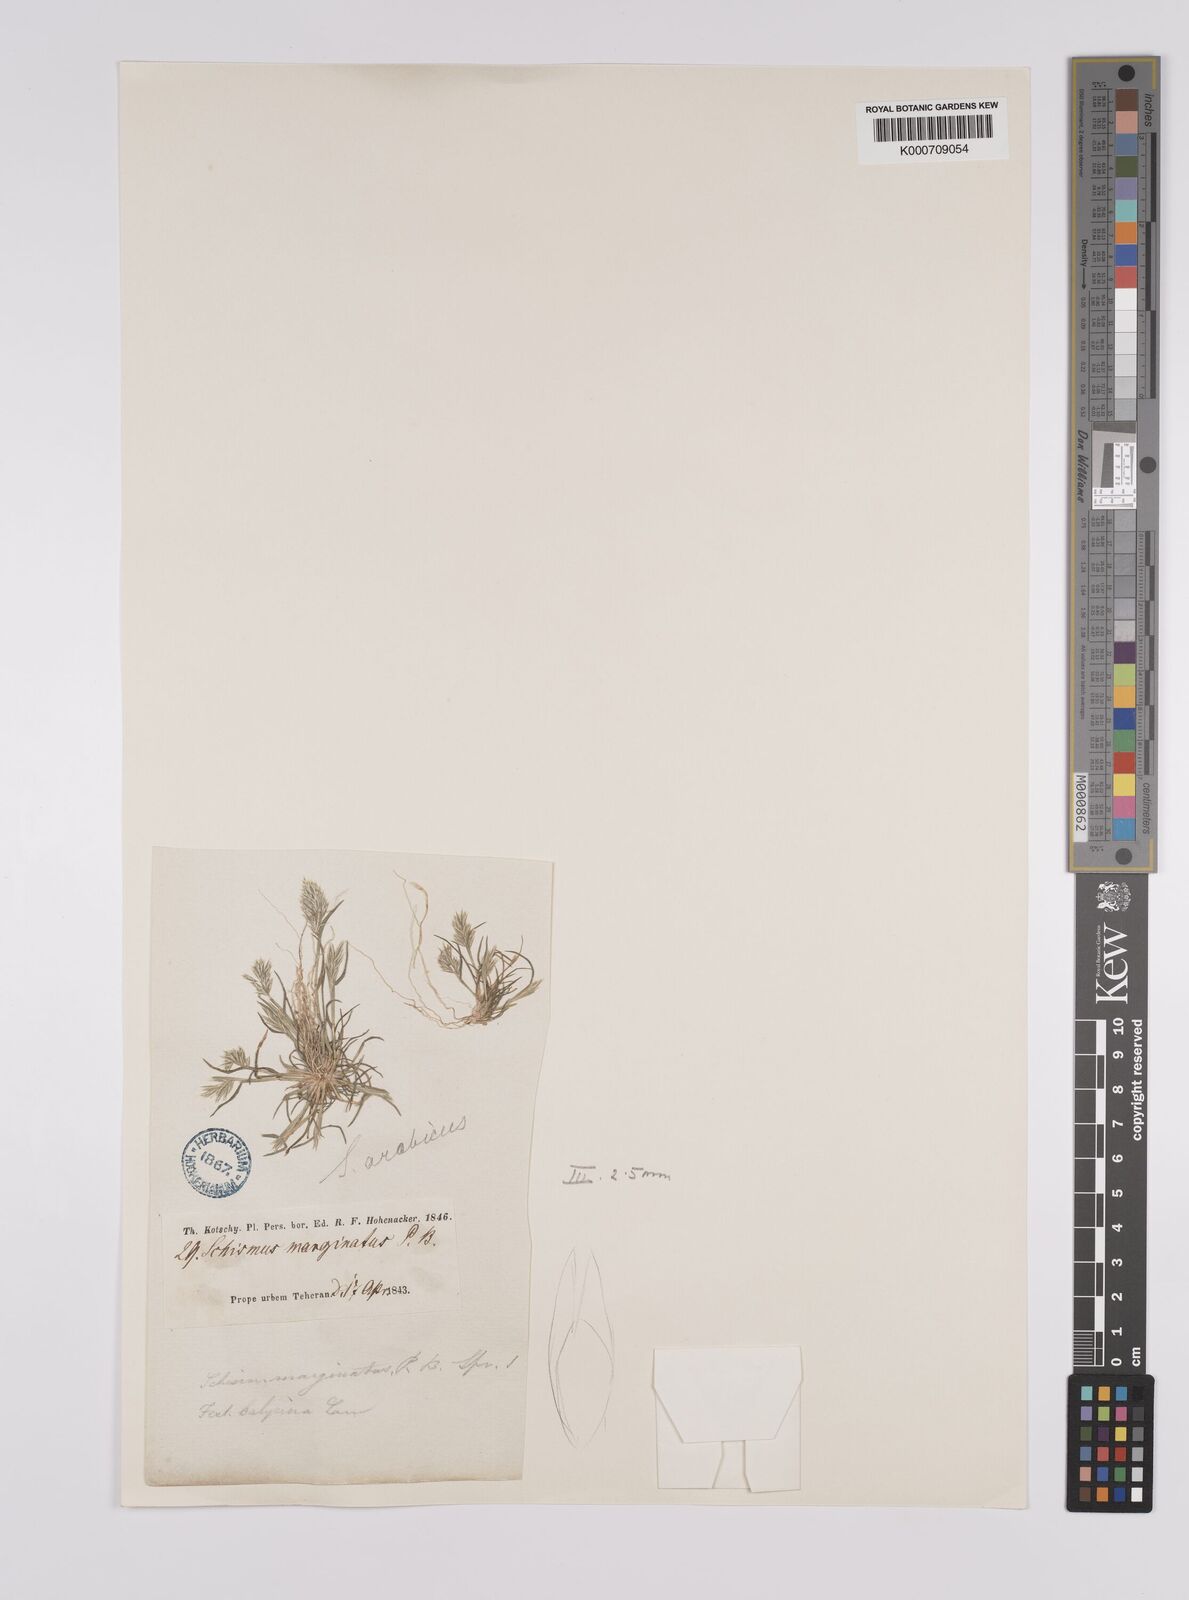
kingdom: Plantae
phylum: Tracheophyta
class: Liliopsida
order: Poales
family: Poaceae
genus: Schismus
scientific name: Schismus arabicus
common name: Arabian schismus
